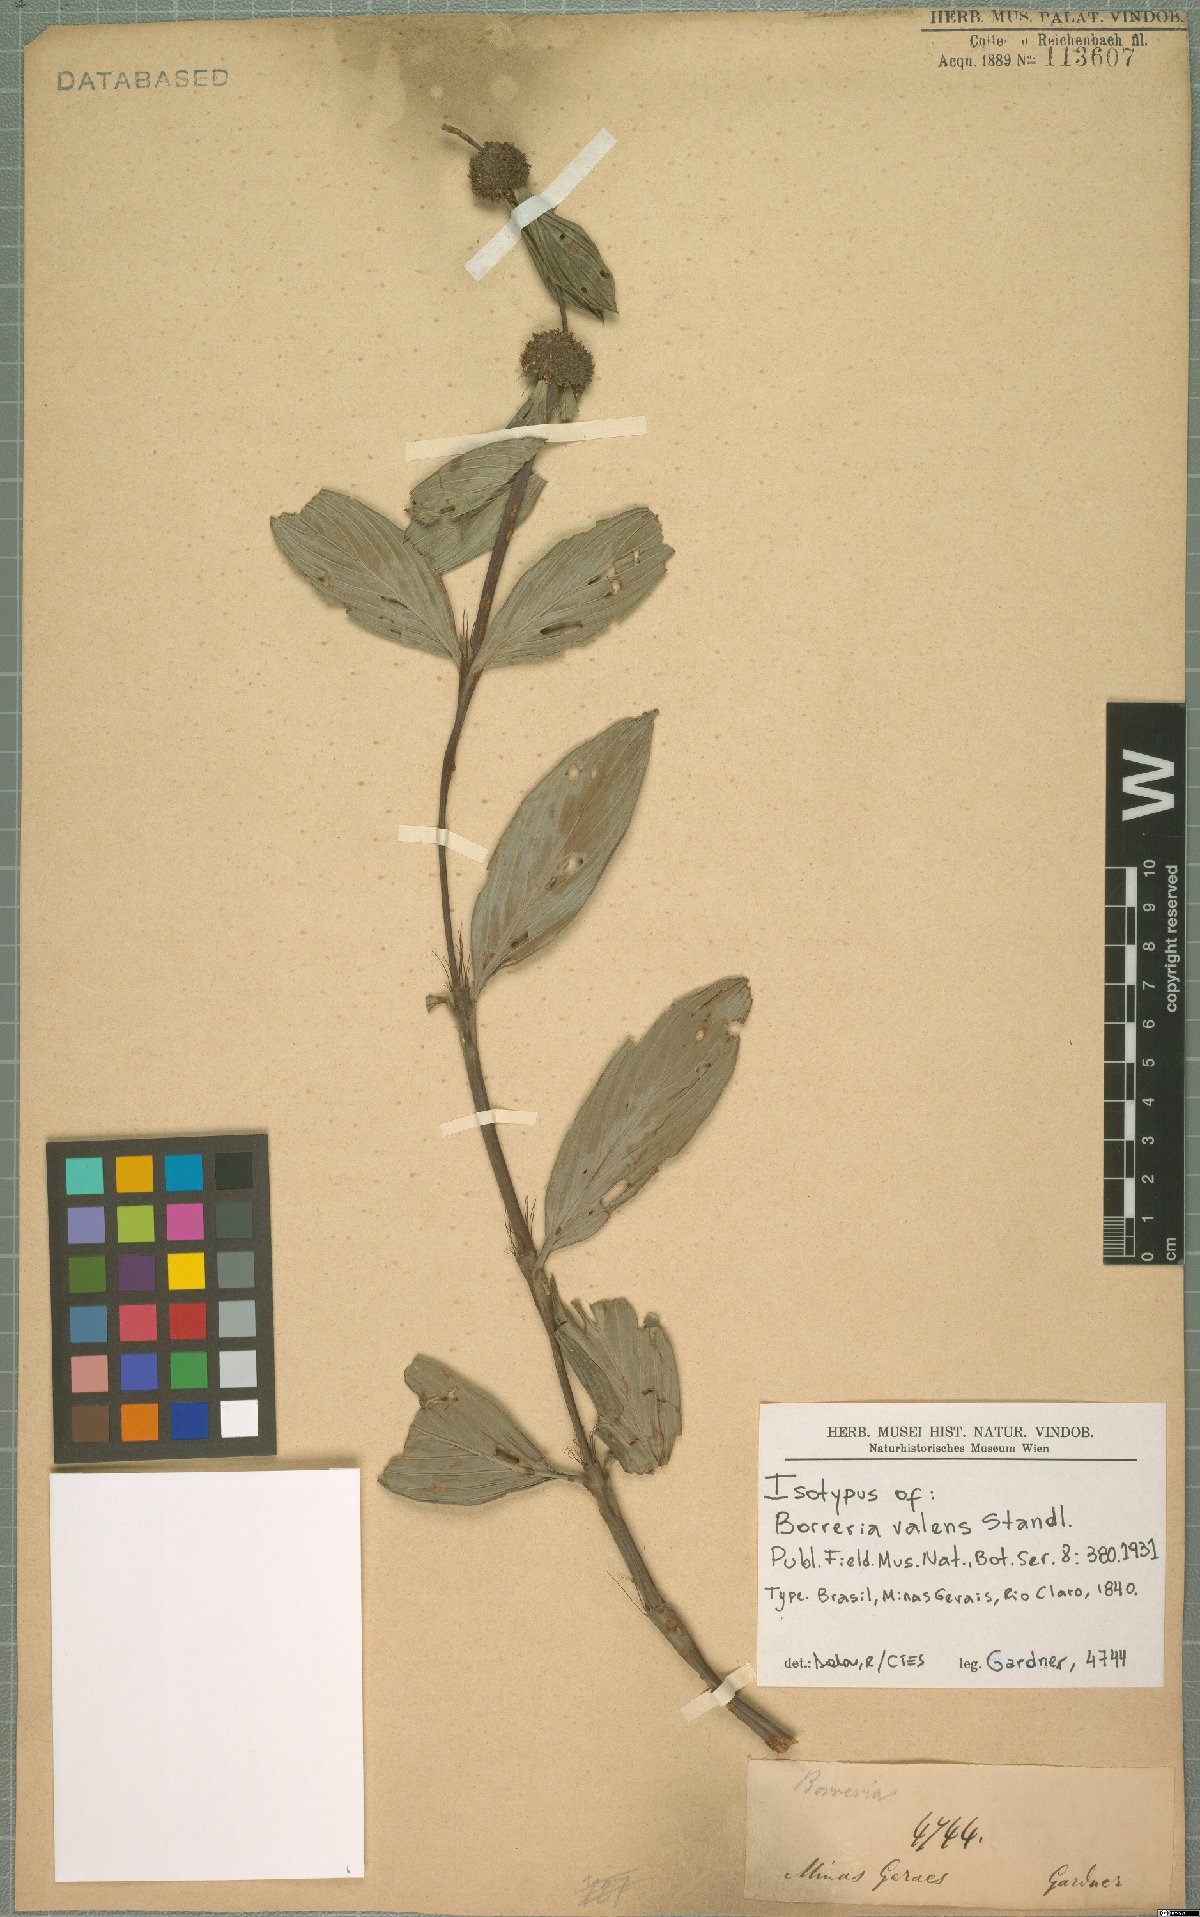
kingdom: Plantae
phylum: Tracheophyta
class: Magnoliopsida
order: Gentianales
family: Rubiaceae
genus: Spermacoce
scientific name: Spermacoce valens
